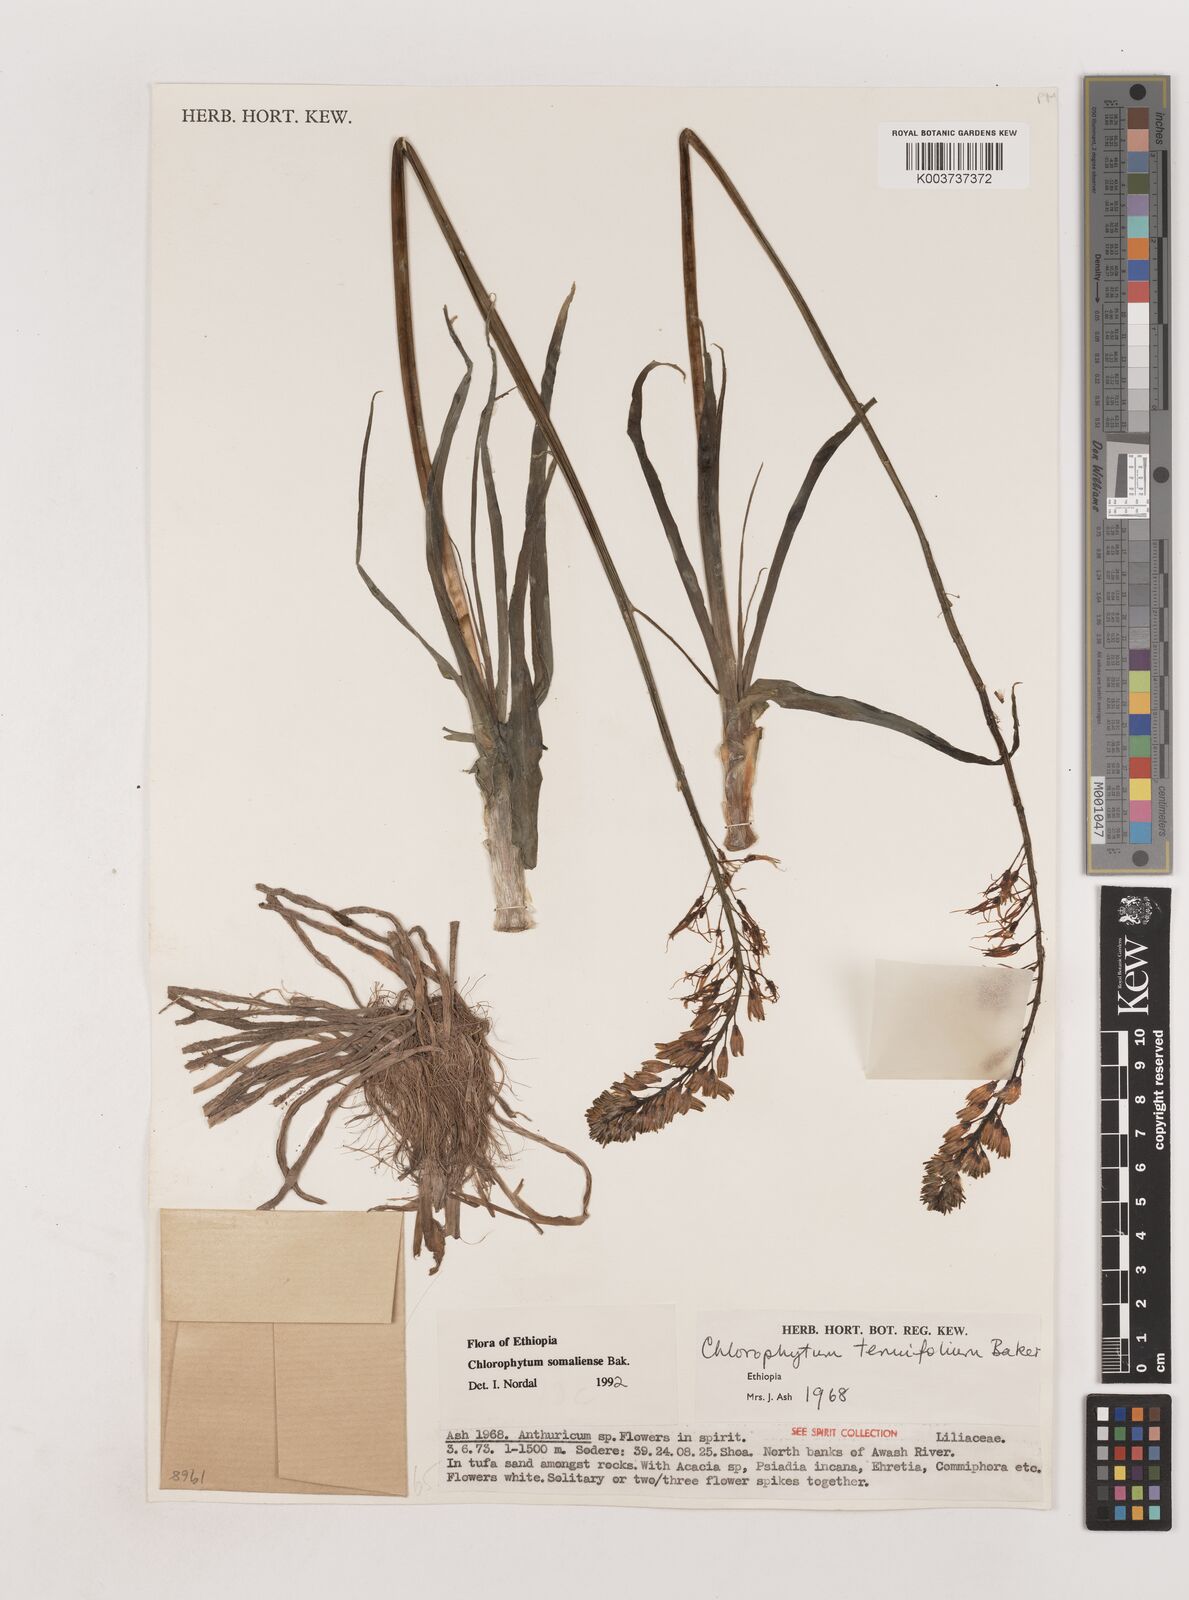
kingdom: Plantae
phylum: Tracheophyta
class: Liliopsida
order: Asparagales
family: Asparagaceae
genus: Chlorophytum
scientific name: Chlorophytum somaliense
